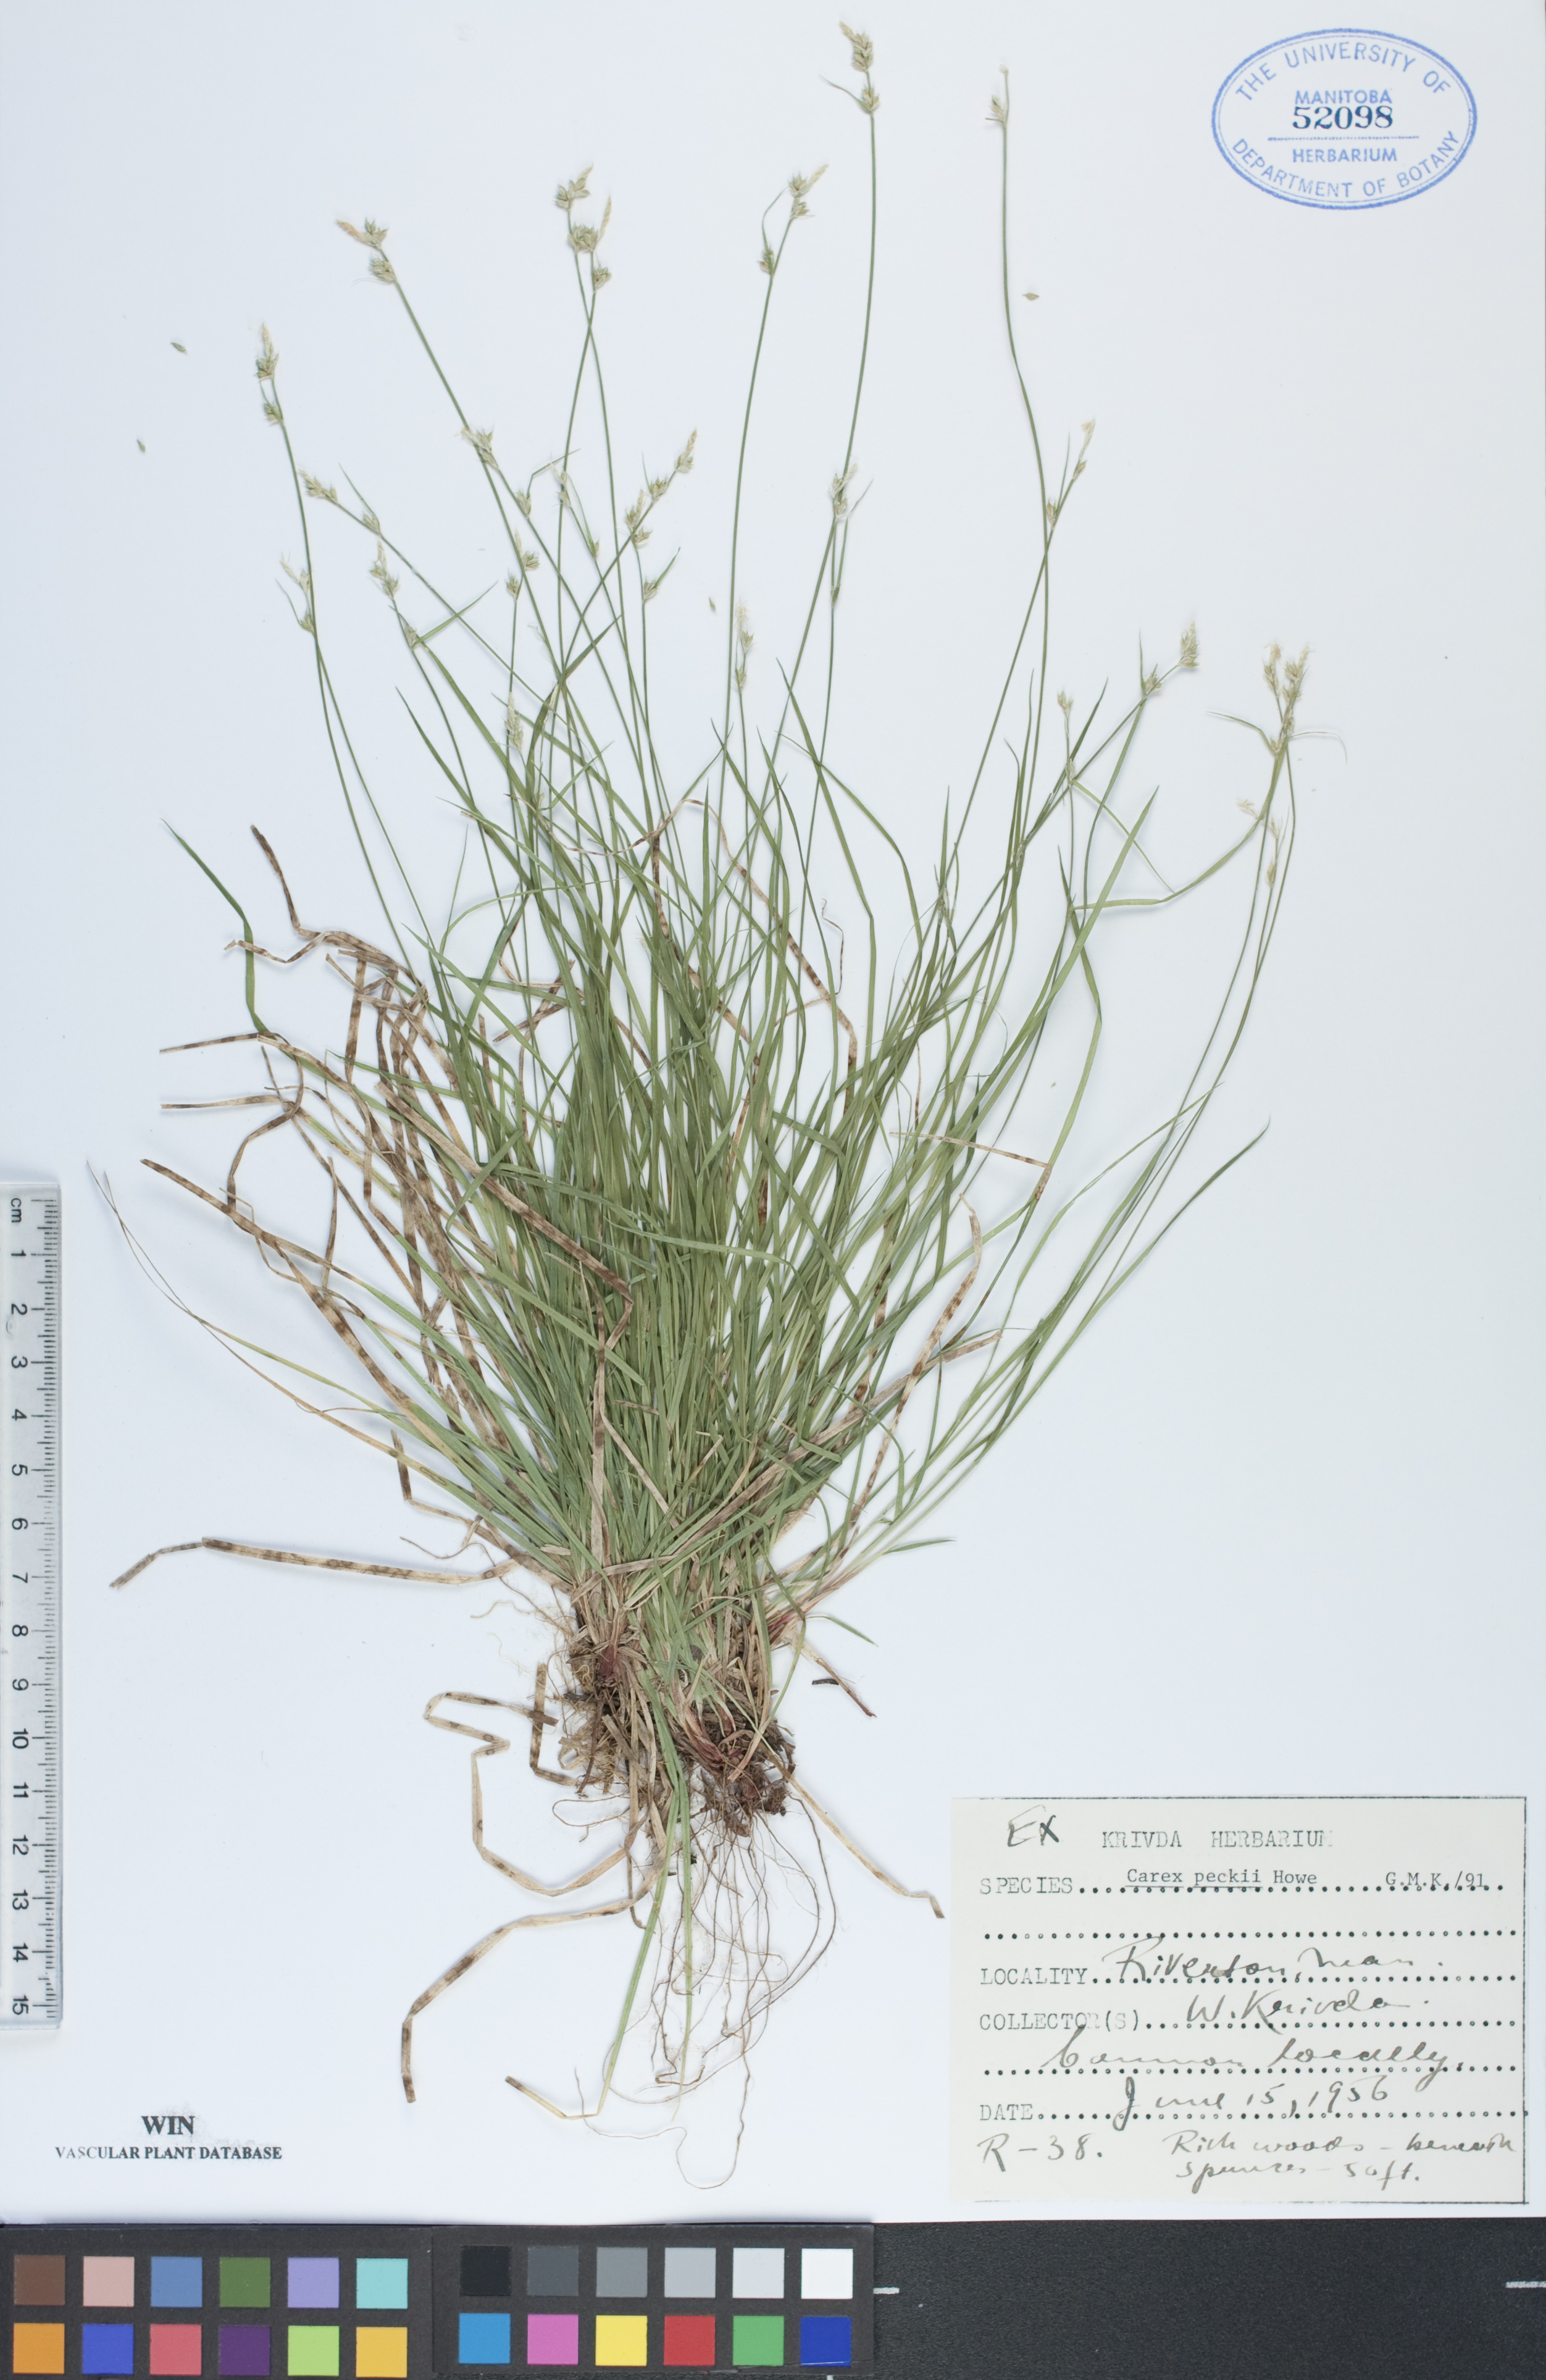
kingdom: Plantae
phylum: Tracheophyta
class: Liliopsida
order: Poales
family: Cyperaceae
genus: Carex
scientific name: Carex peckii
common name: Peck's oak sedge
